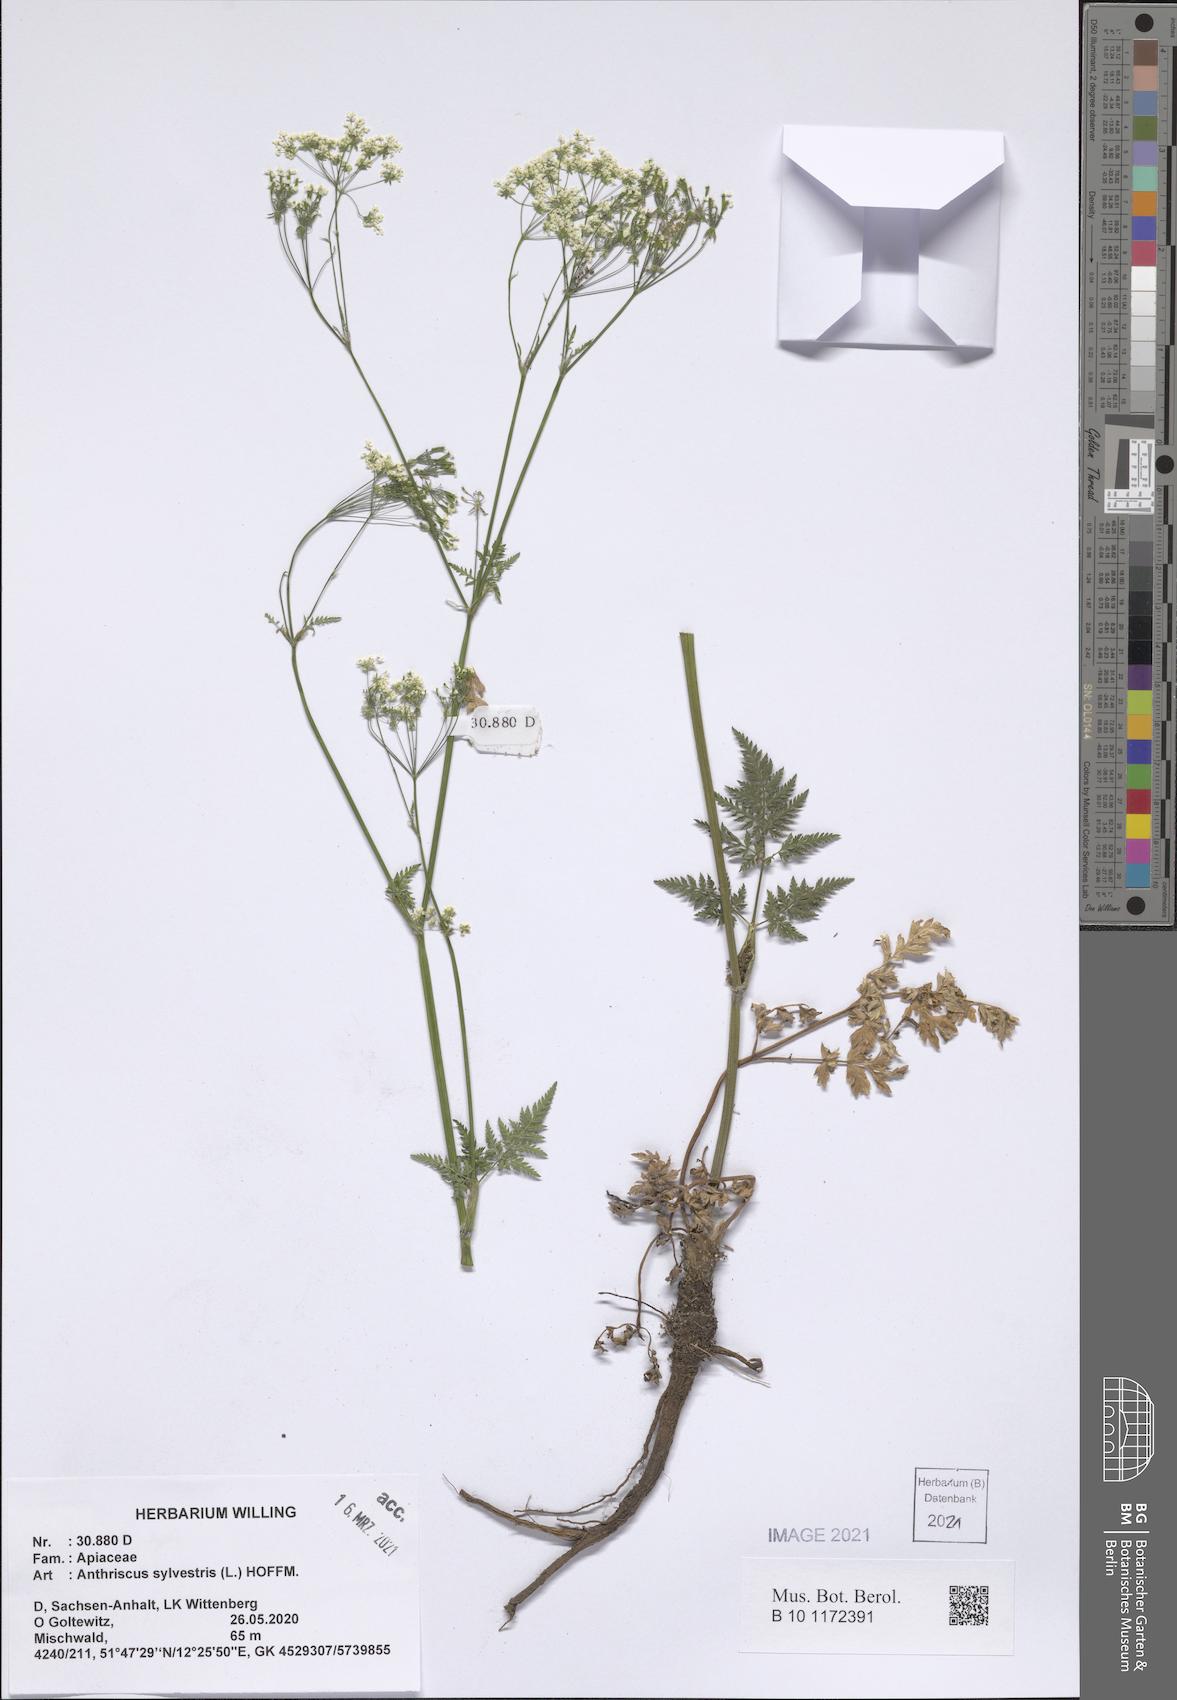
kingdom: Plantae
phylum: Tracheophyta
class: Magnoliopsida
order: Apiales
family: Apiaceae
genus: Anthriscus
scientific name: Anthriscus sylvestris
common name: Cow parsley
